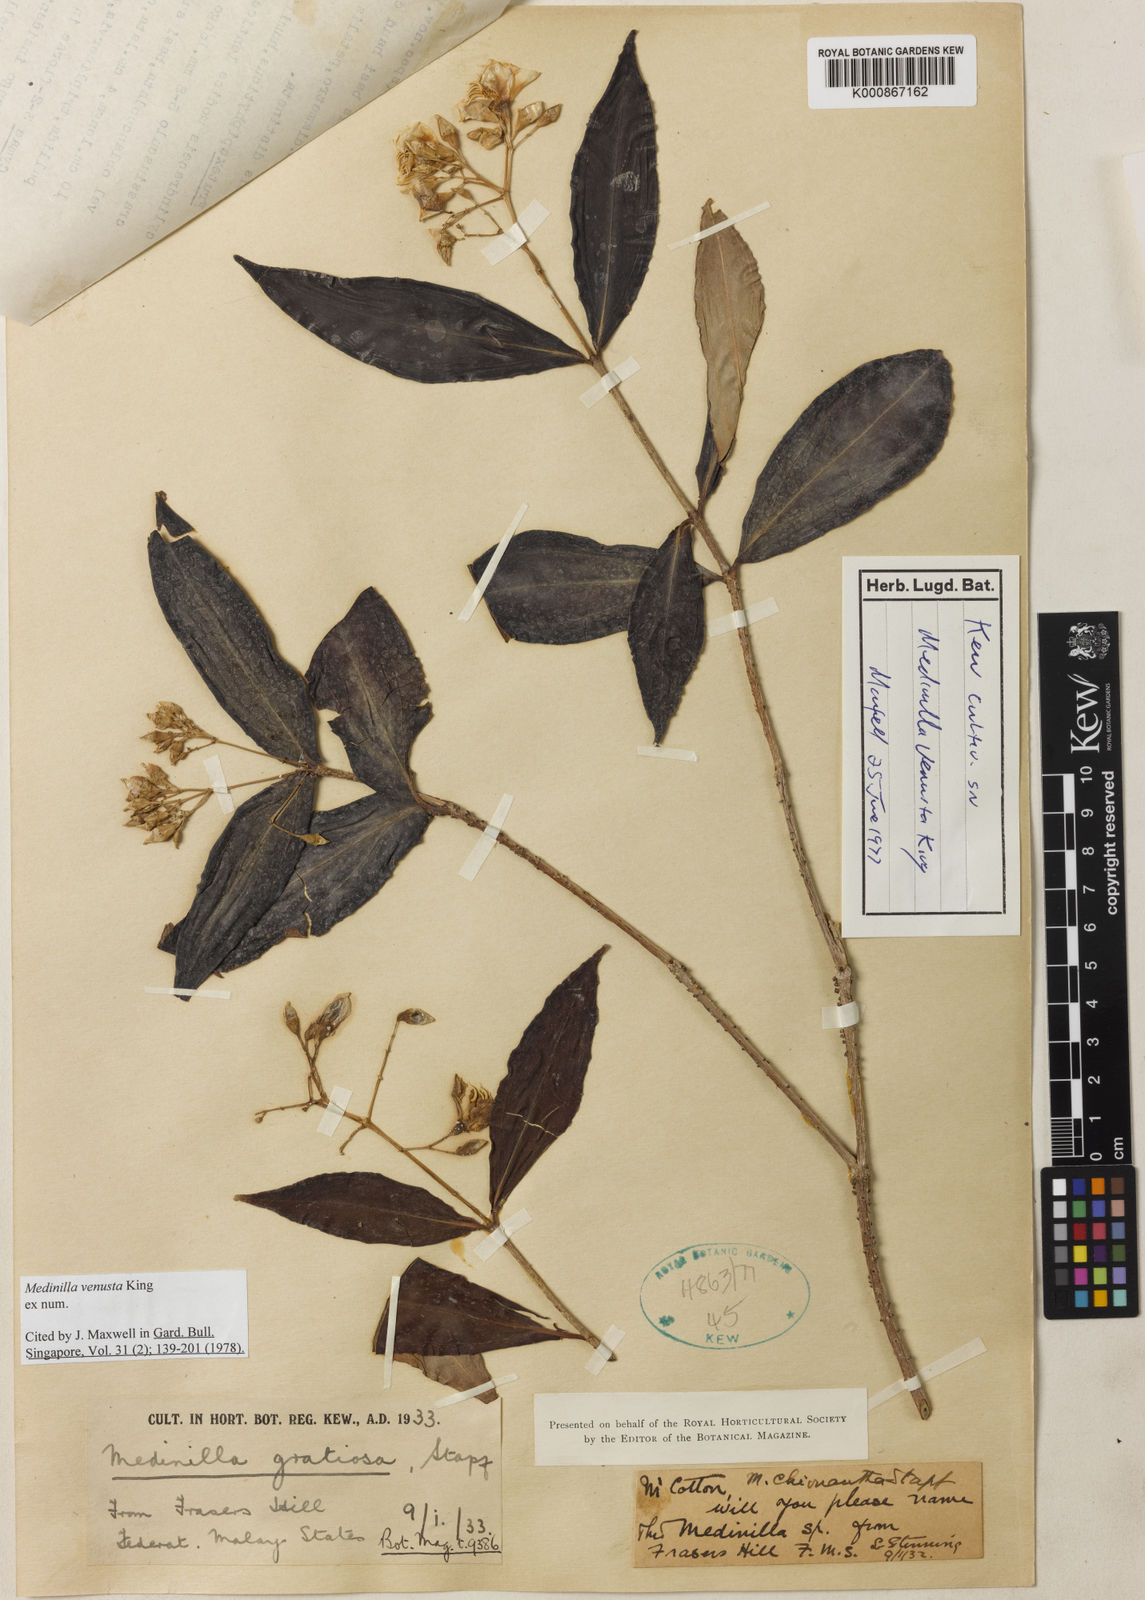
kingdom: Plantae
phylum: Tracheophyta
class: Magnoliopsida
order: Myrtales
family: Melastomataceae
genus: Medinilla
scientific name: Medinilla venusta
